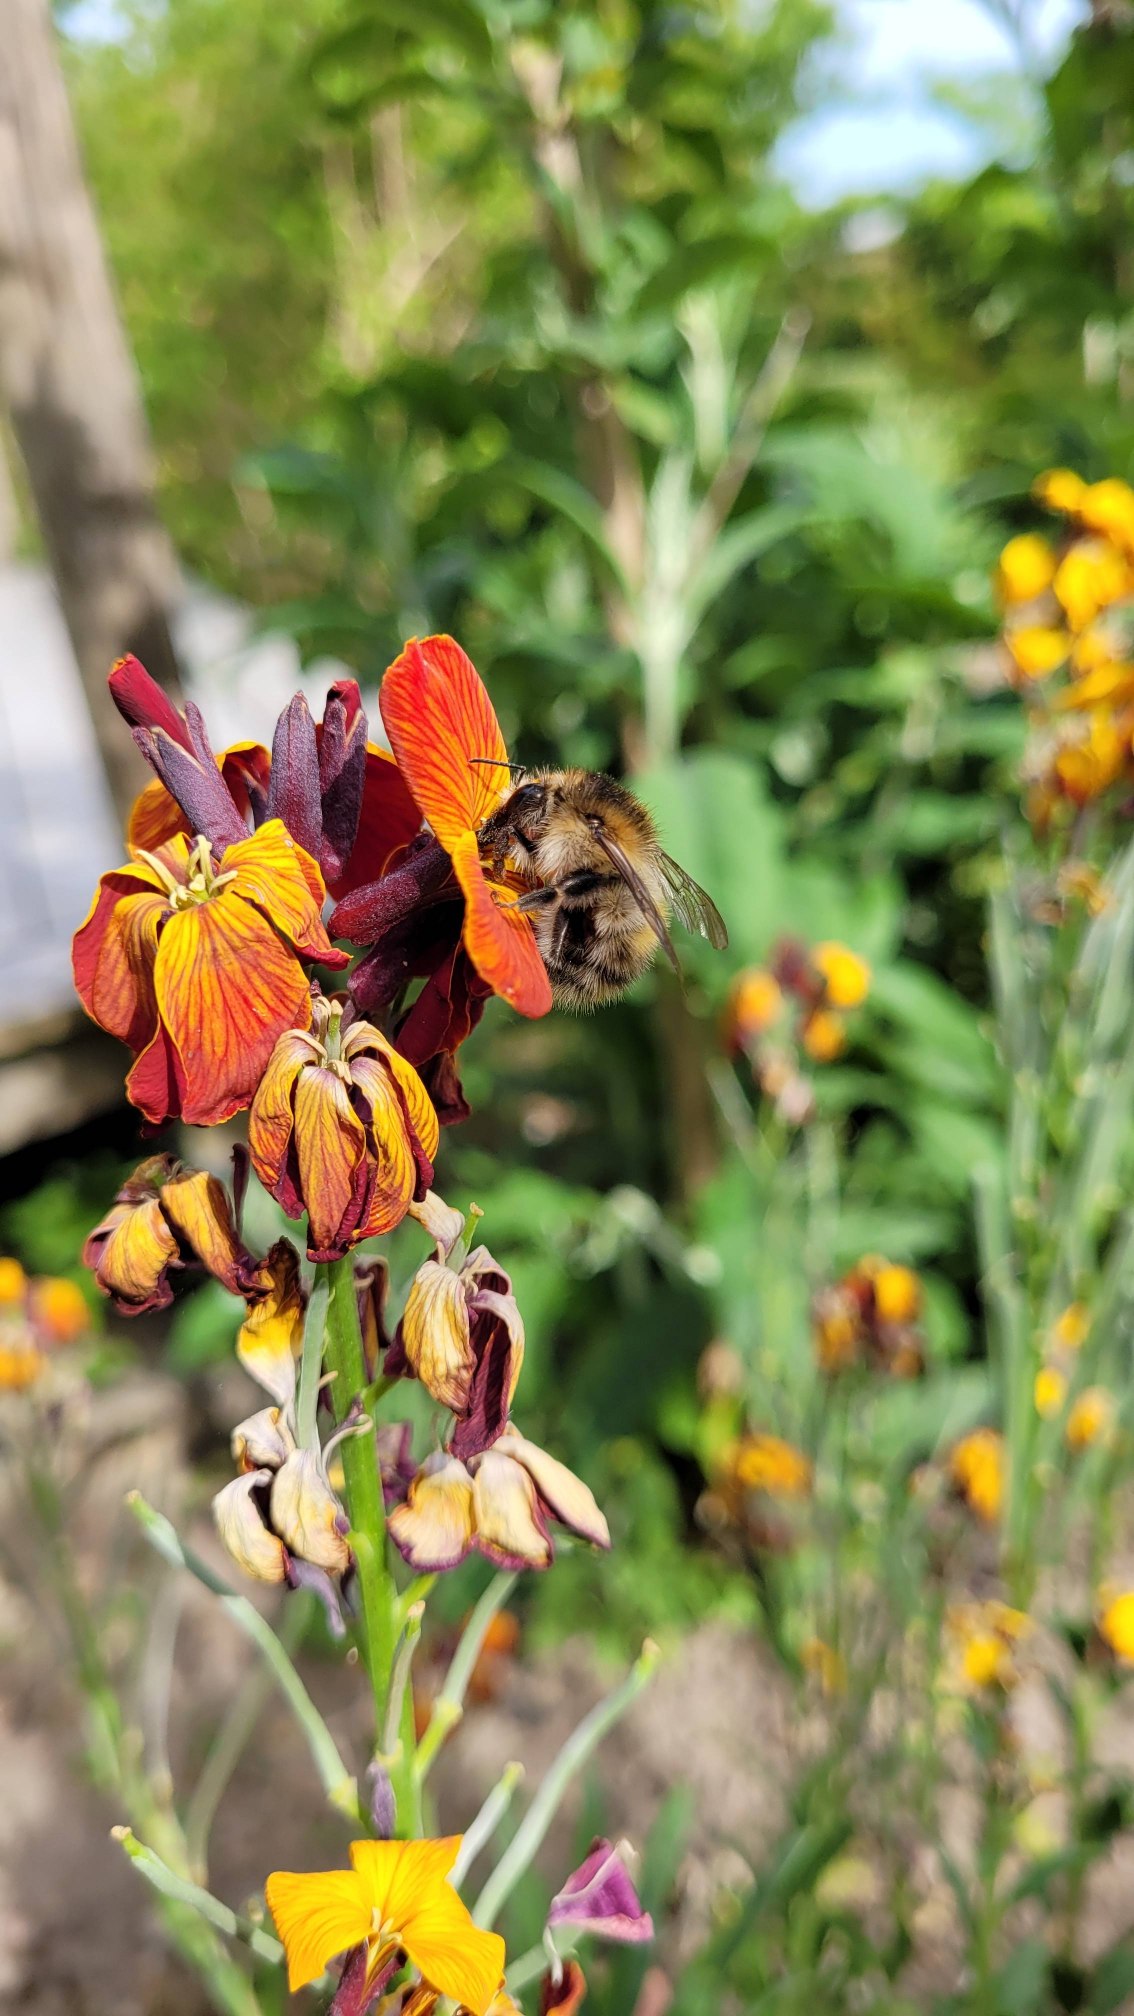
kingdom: Animalia
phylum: Arthropoda
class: Insecta
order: Hymenoptera
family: Apidae
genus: Bombus
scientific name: Bombus pascuorum
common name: Agerhumle
